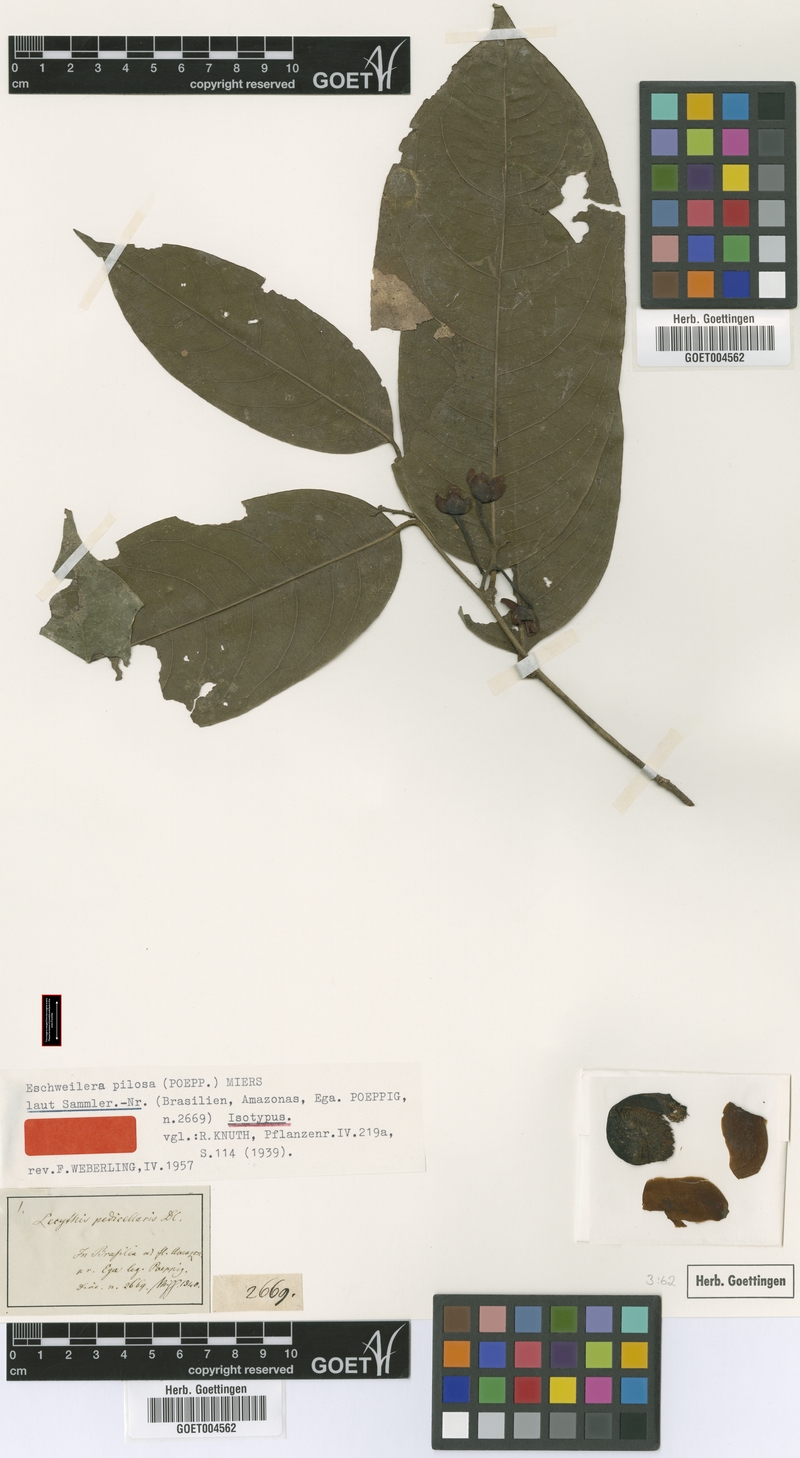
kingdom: Plantae
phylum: Tracheophyta
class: Magnoliopsida
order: Ericales
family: Lecythidaceae
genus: Eschweilera
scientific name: Eschweilera pedicellata
